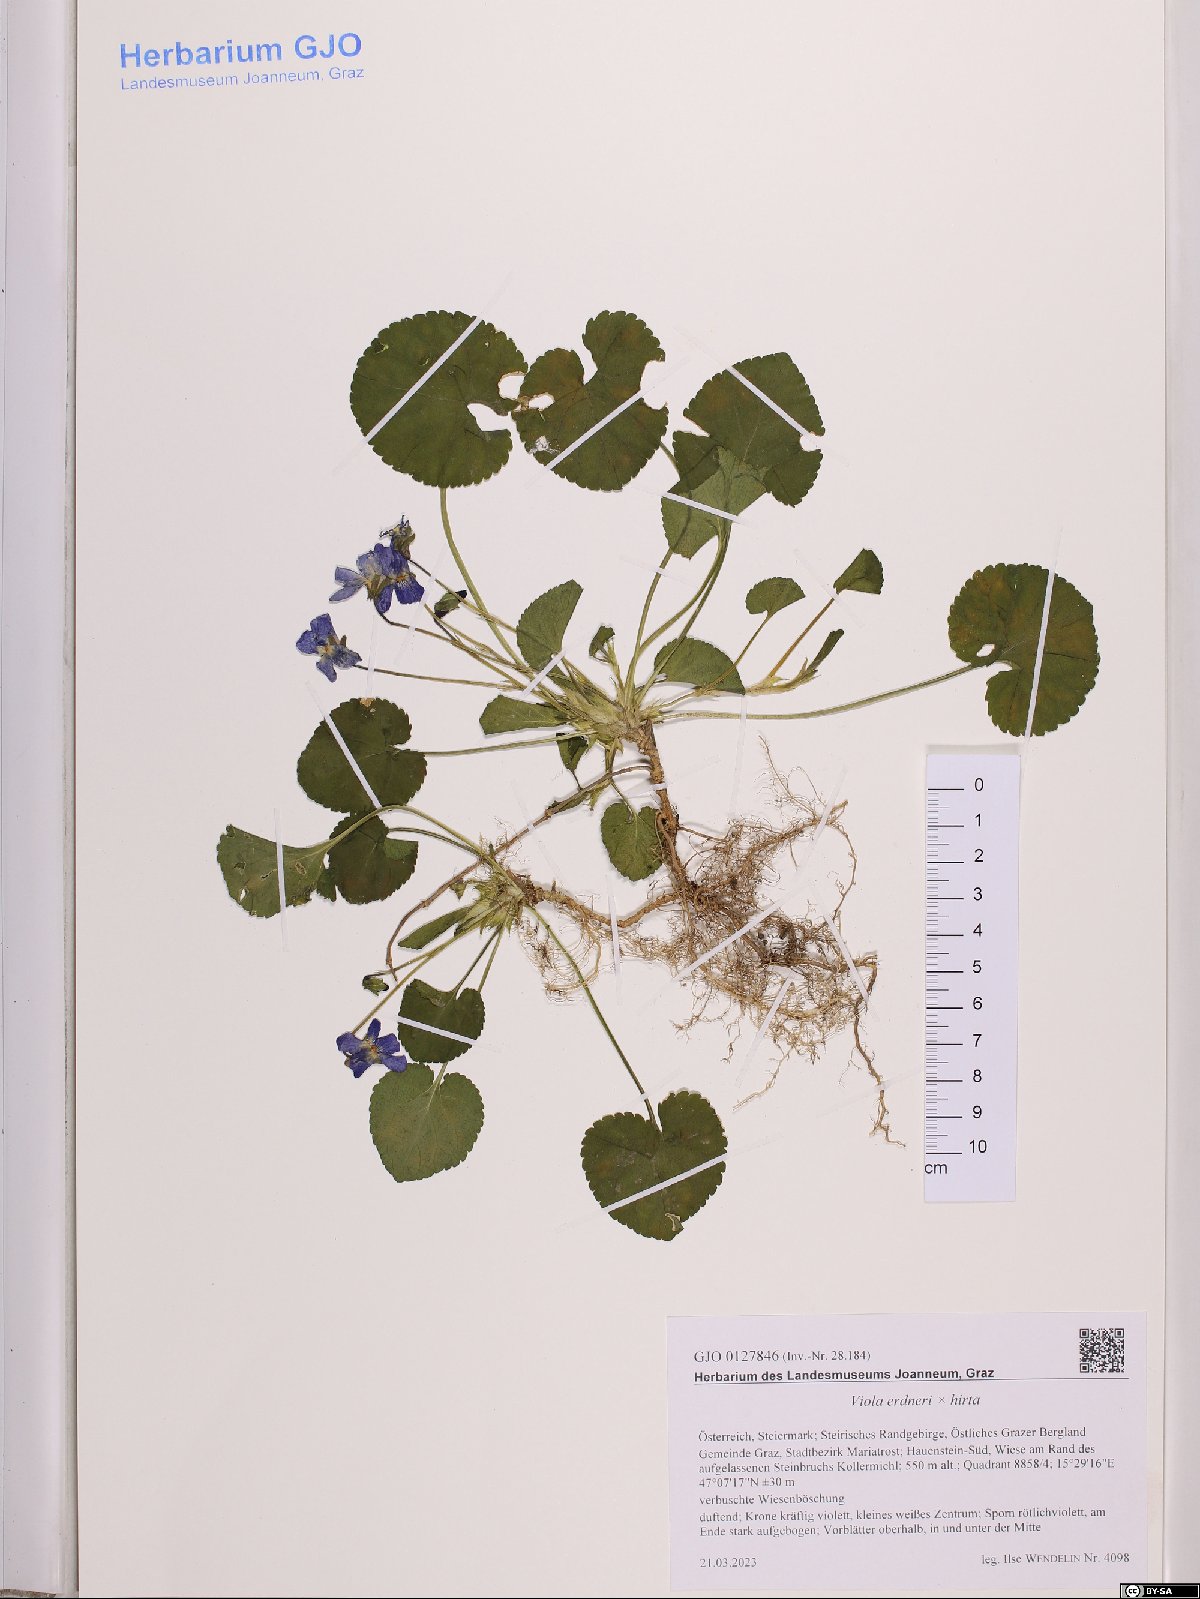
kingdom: Plantae
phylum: Tracheophyta
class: Magnoliopsida
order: Malpighiales
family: Violaceae
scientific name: Violaceae
